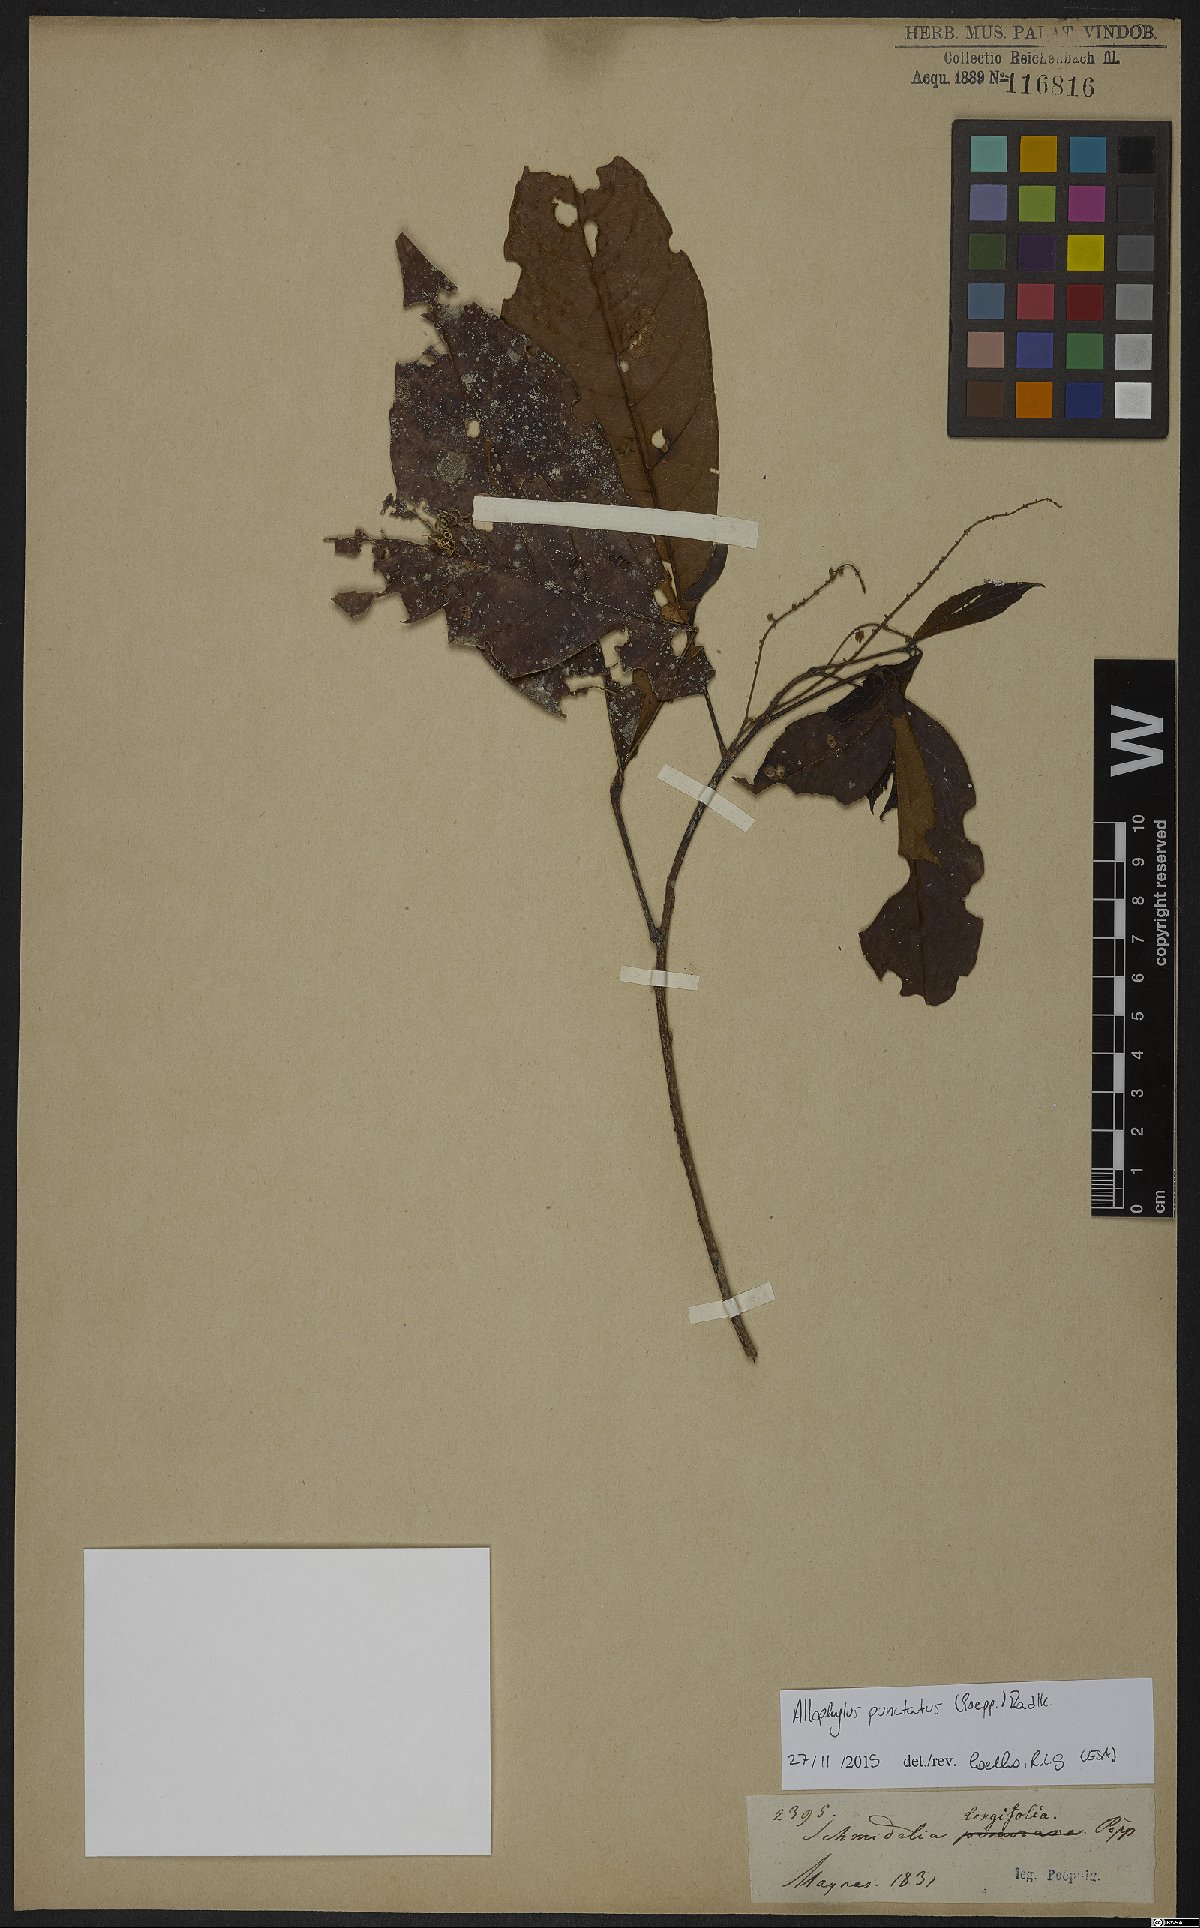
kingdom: Plantae
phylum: Tracheophyta
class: Magnoliopsida
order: Sapindales
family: Sapindaceae
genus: Allophylus
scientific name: Allophylus punctatus
